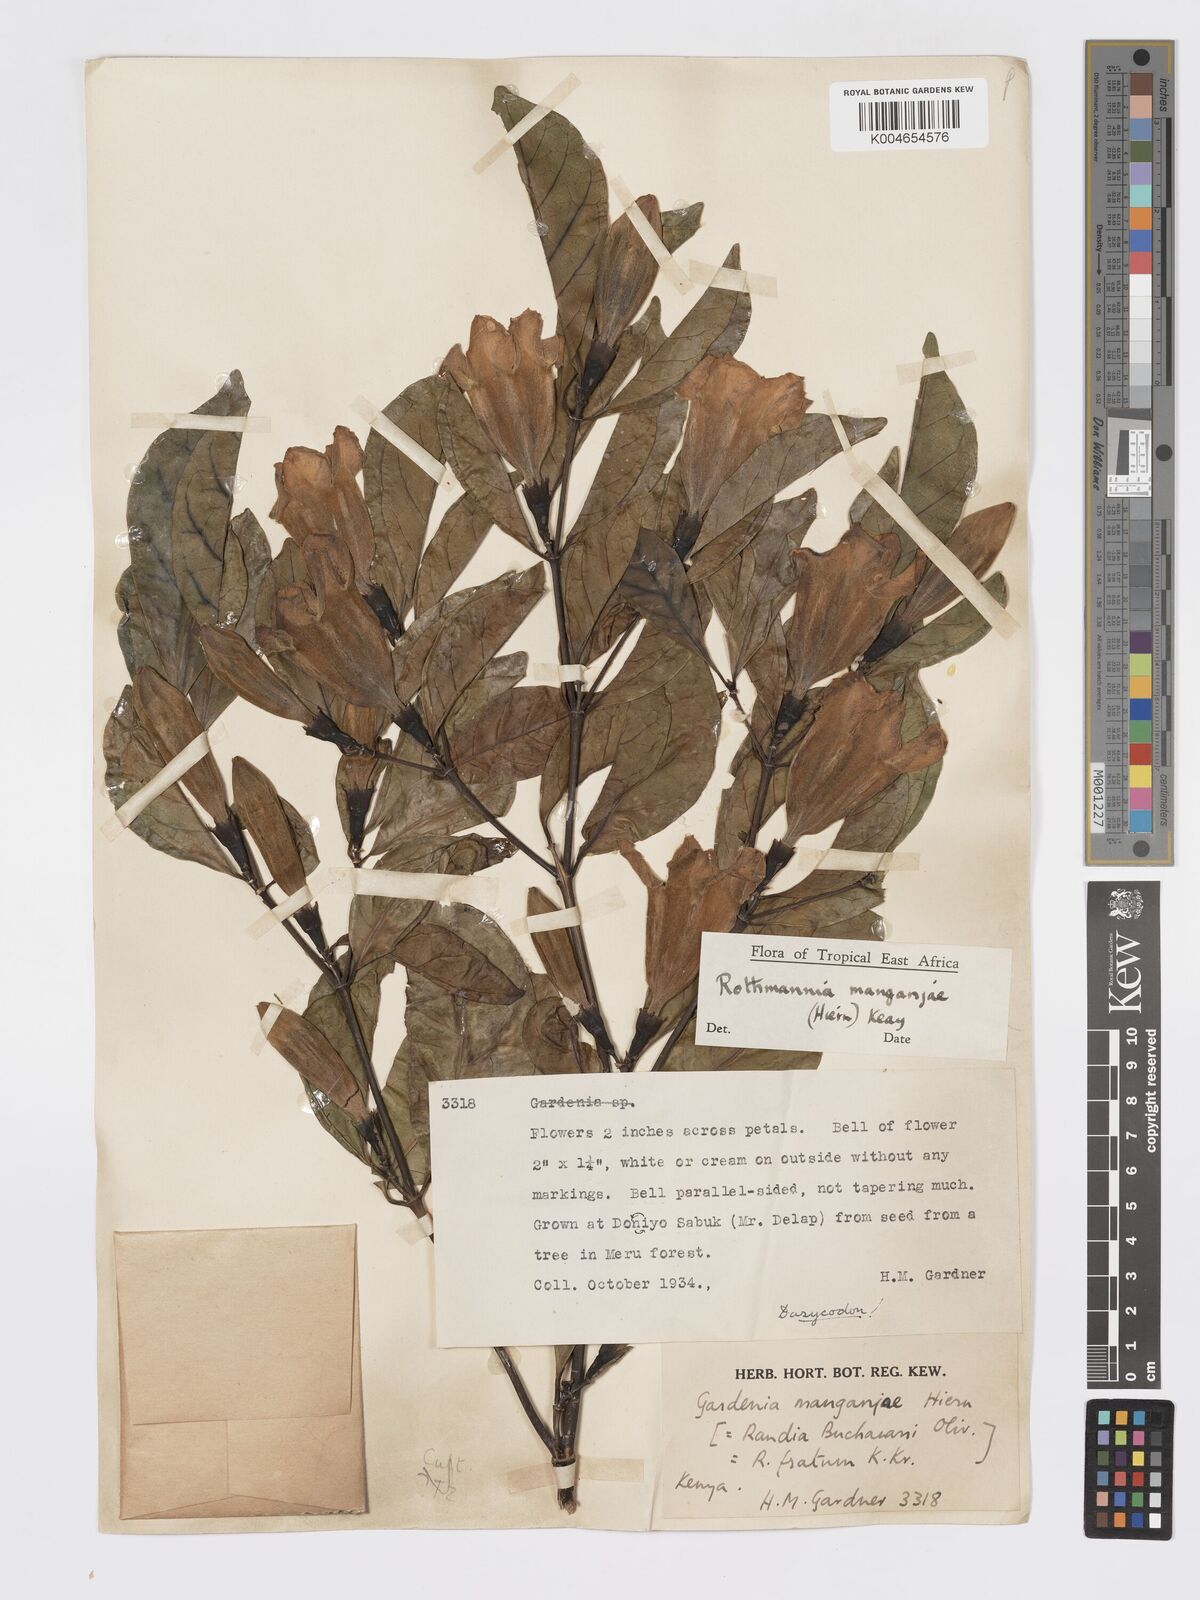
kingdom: Plantae
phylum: Tracheophyta
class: Magnoliopsida
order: Gentianales
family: Rubiaceae
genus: Rothmannia
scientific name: Rothmannia manganjae
